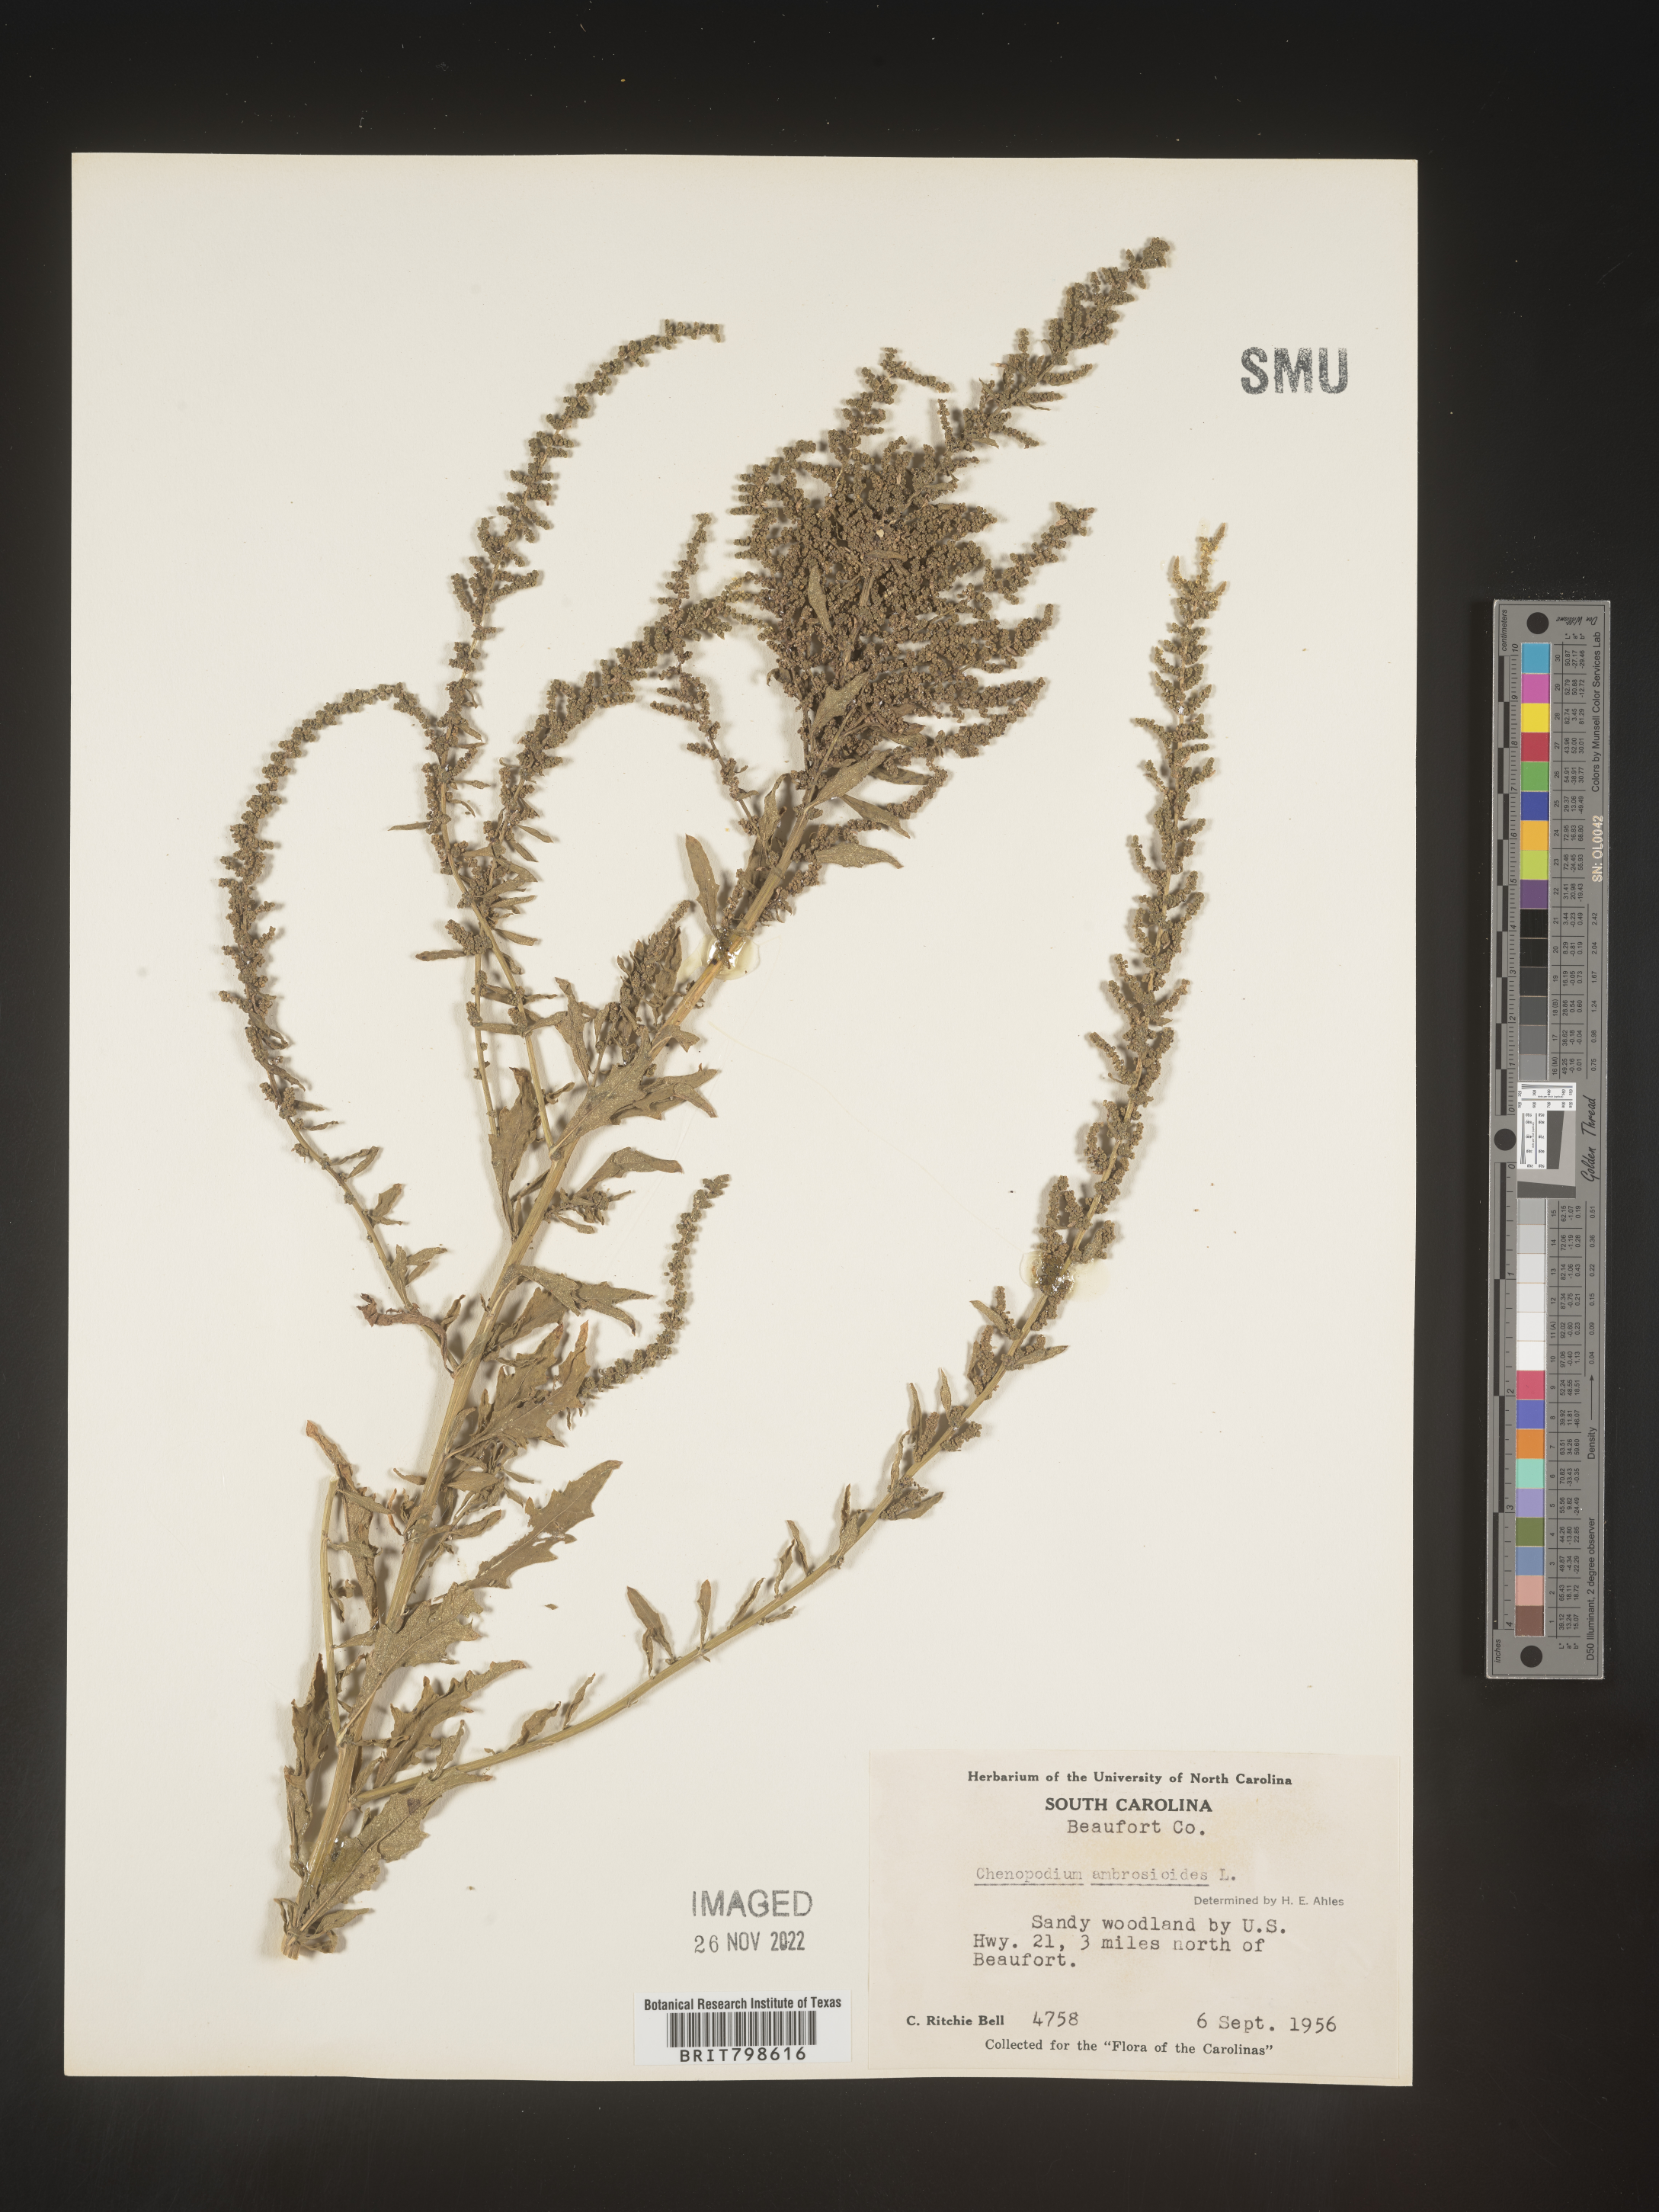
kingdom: Plantae
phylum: Tracheophyta
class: Magnoliopsida
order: Caryophyllales
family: Amaranthaceae
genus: Dysphania
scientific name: Dysphania ambrosioides
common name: Wormseed
